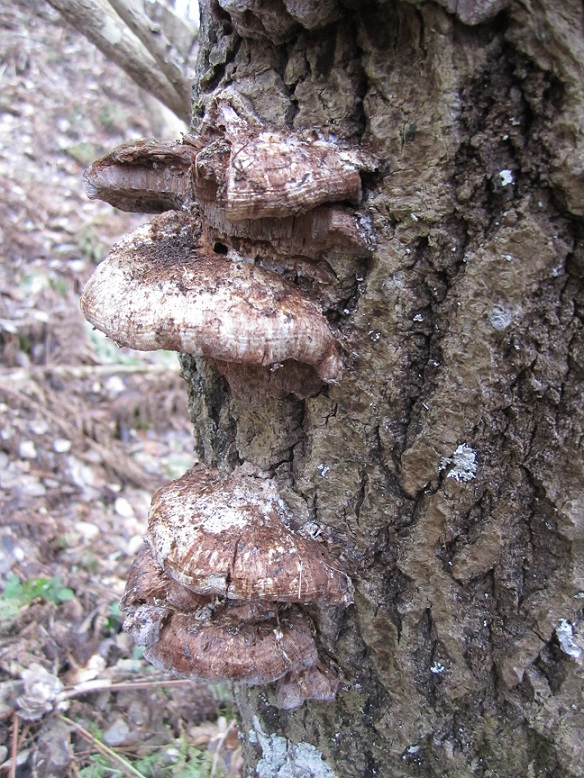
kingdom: Fungi
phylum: Basidiomycota
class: Agaricomycetes
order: Hymenochaetales
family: Hymenochaetaceae
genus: Inocutis
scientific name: Inocutis rheades
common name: ræve-spejlporesvamp
